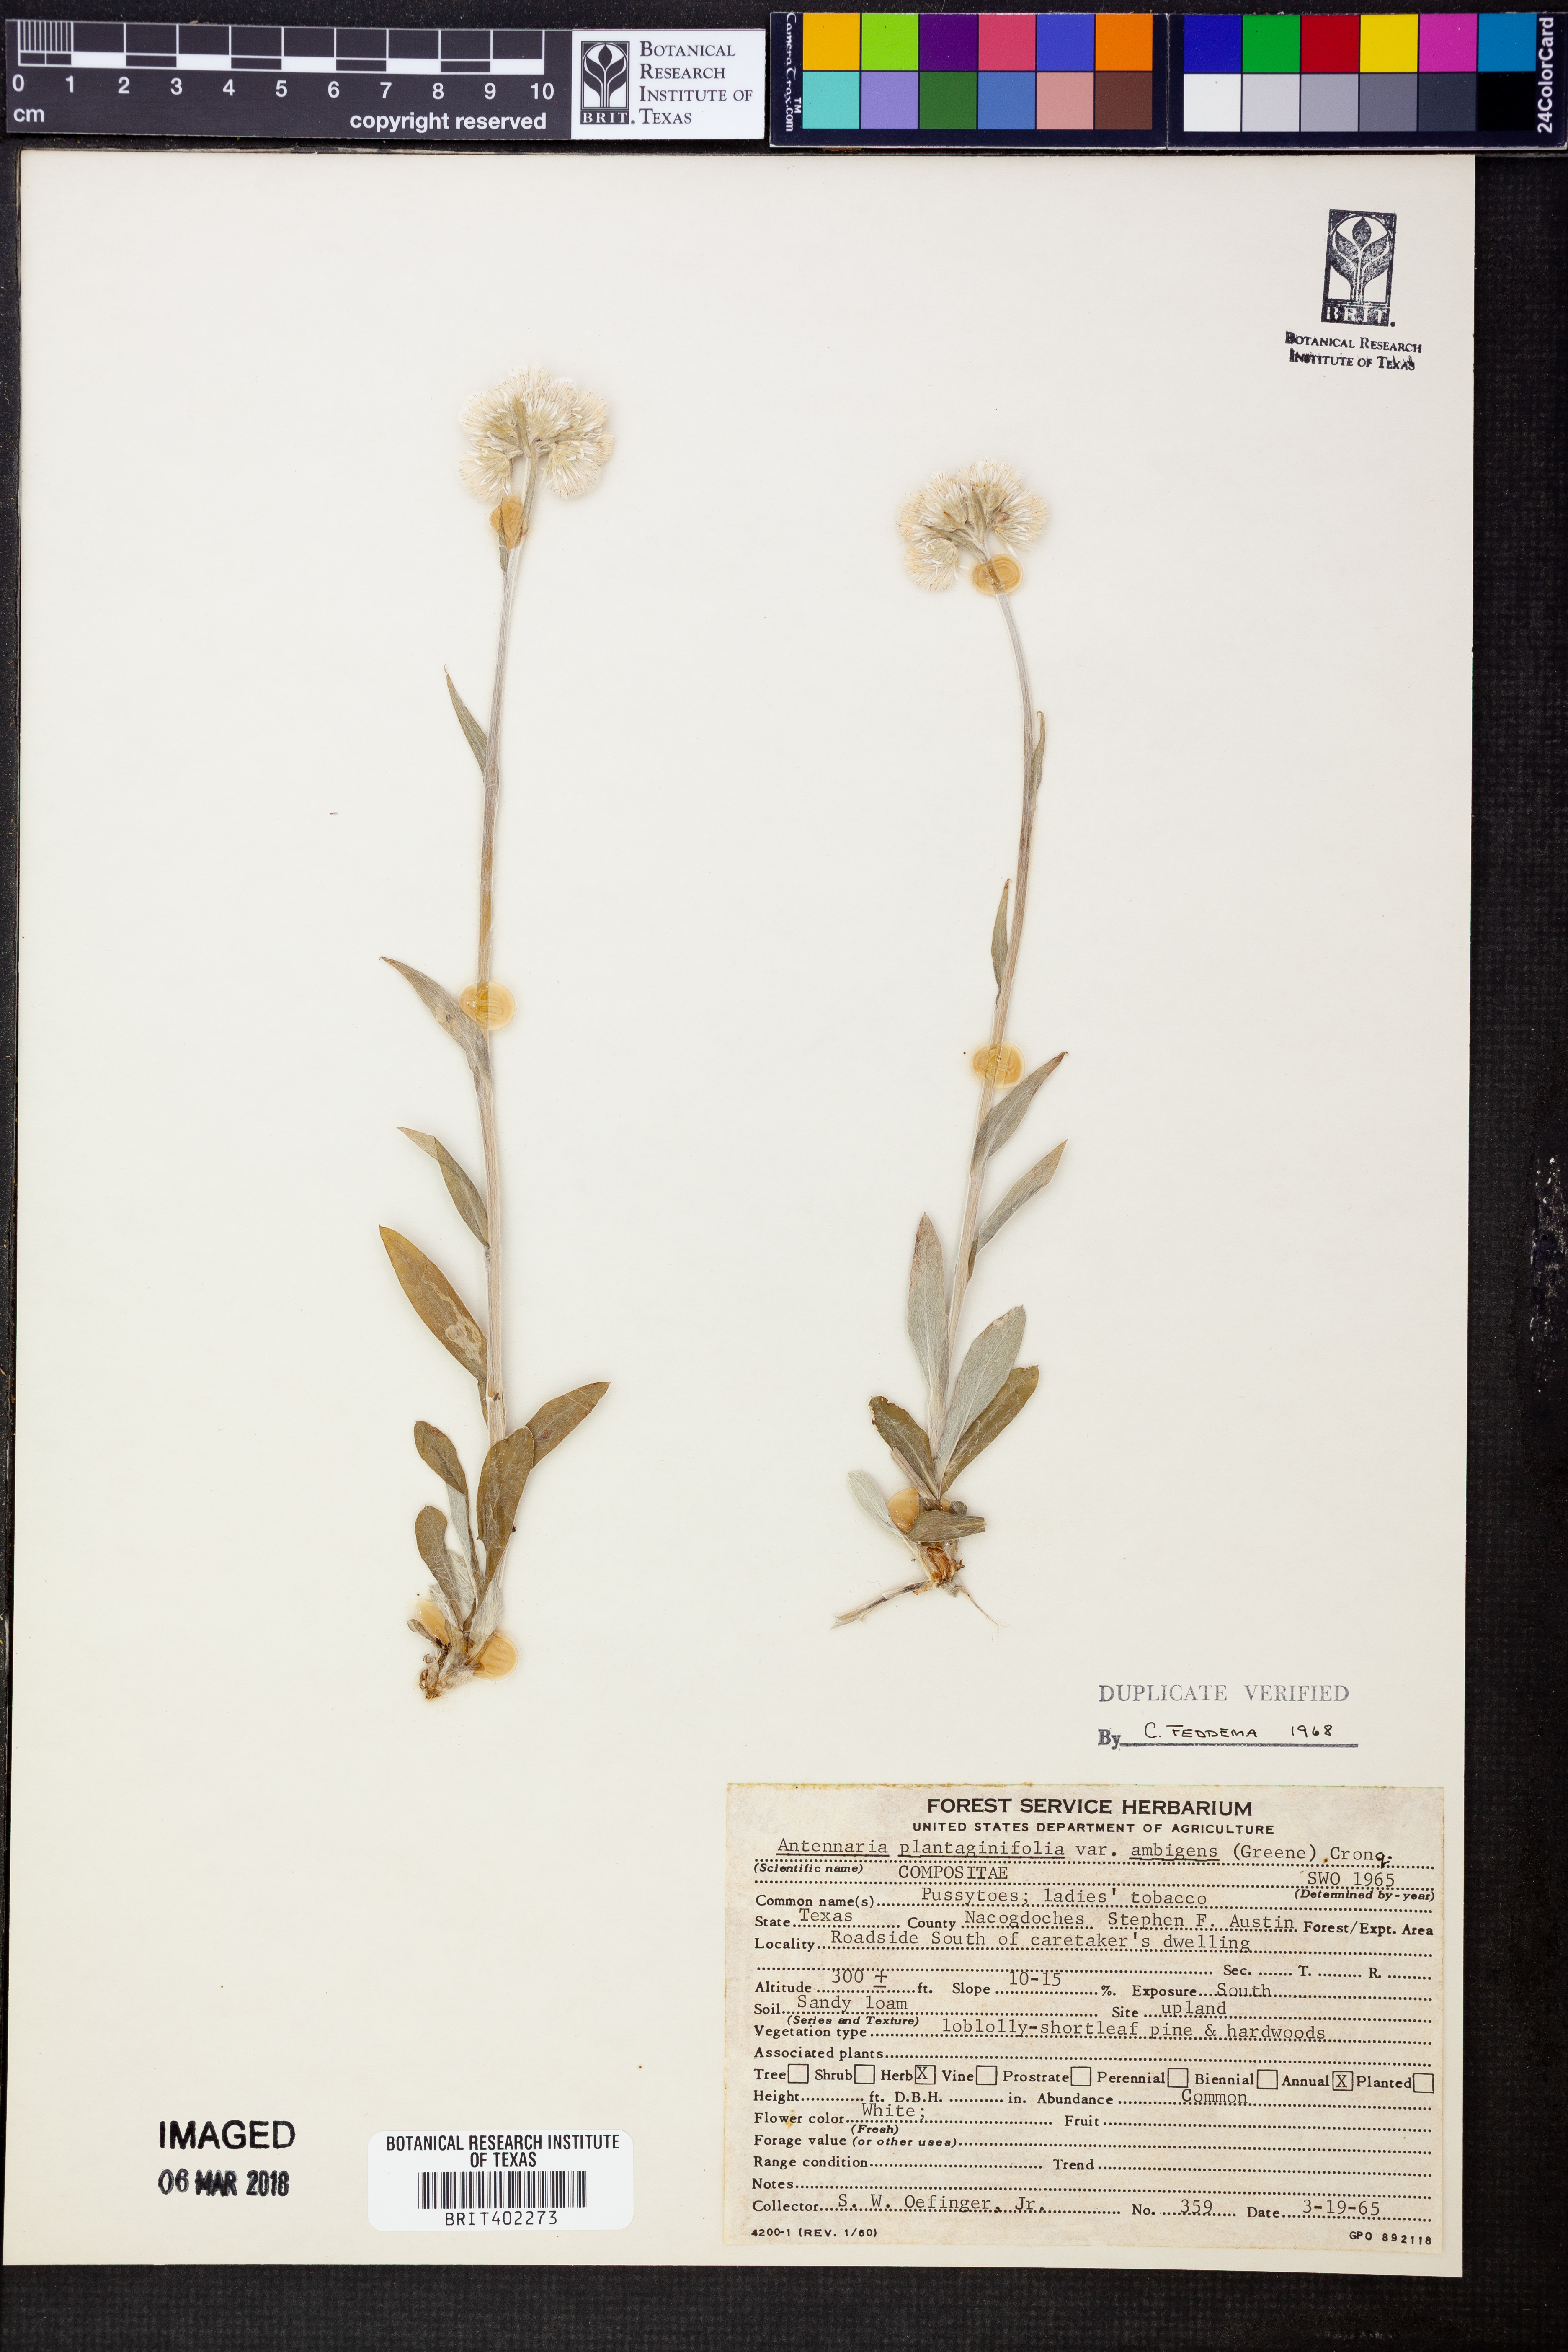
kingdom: Plantae
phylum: Tracheophyta
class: Magnoliopsida
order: Asterales
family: Asteraceae
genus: Antennaria
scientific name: Antennaria parlinii
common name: Parlin's pussytoes
